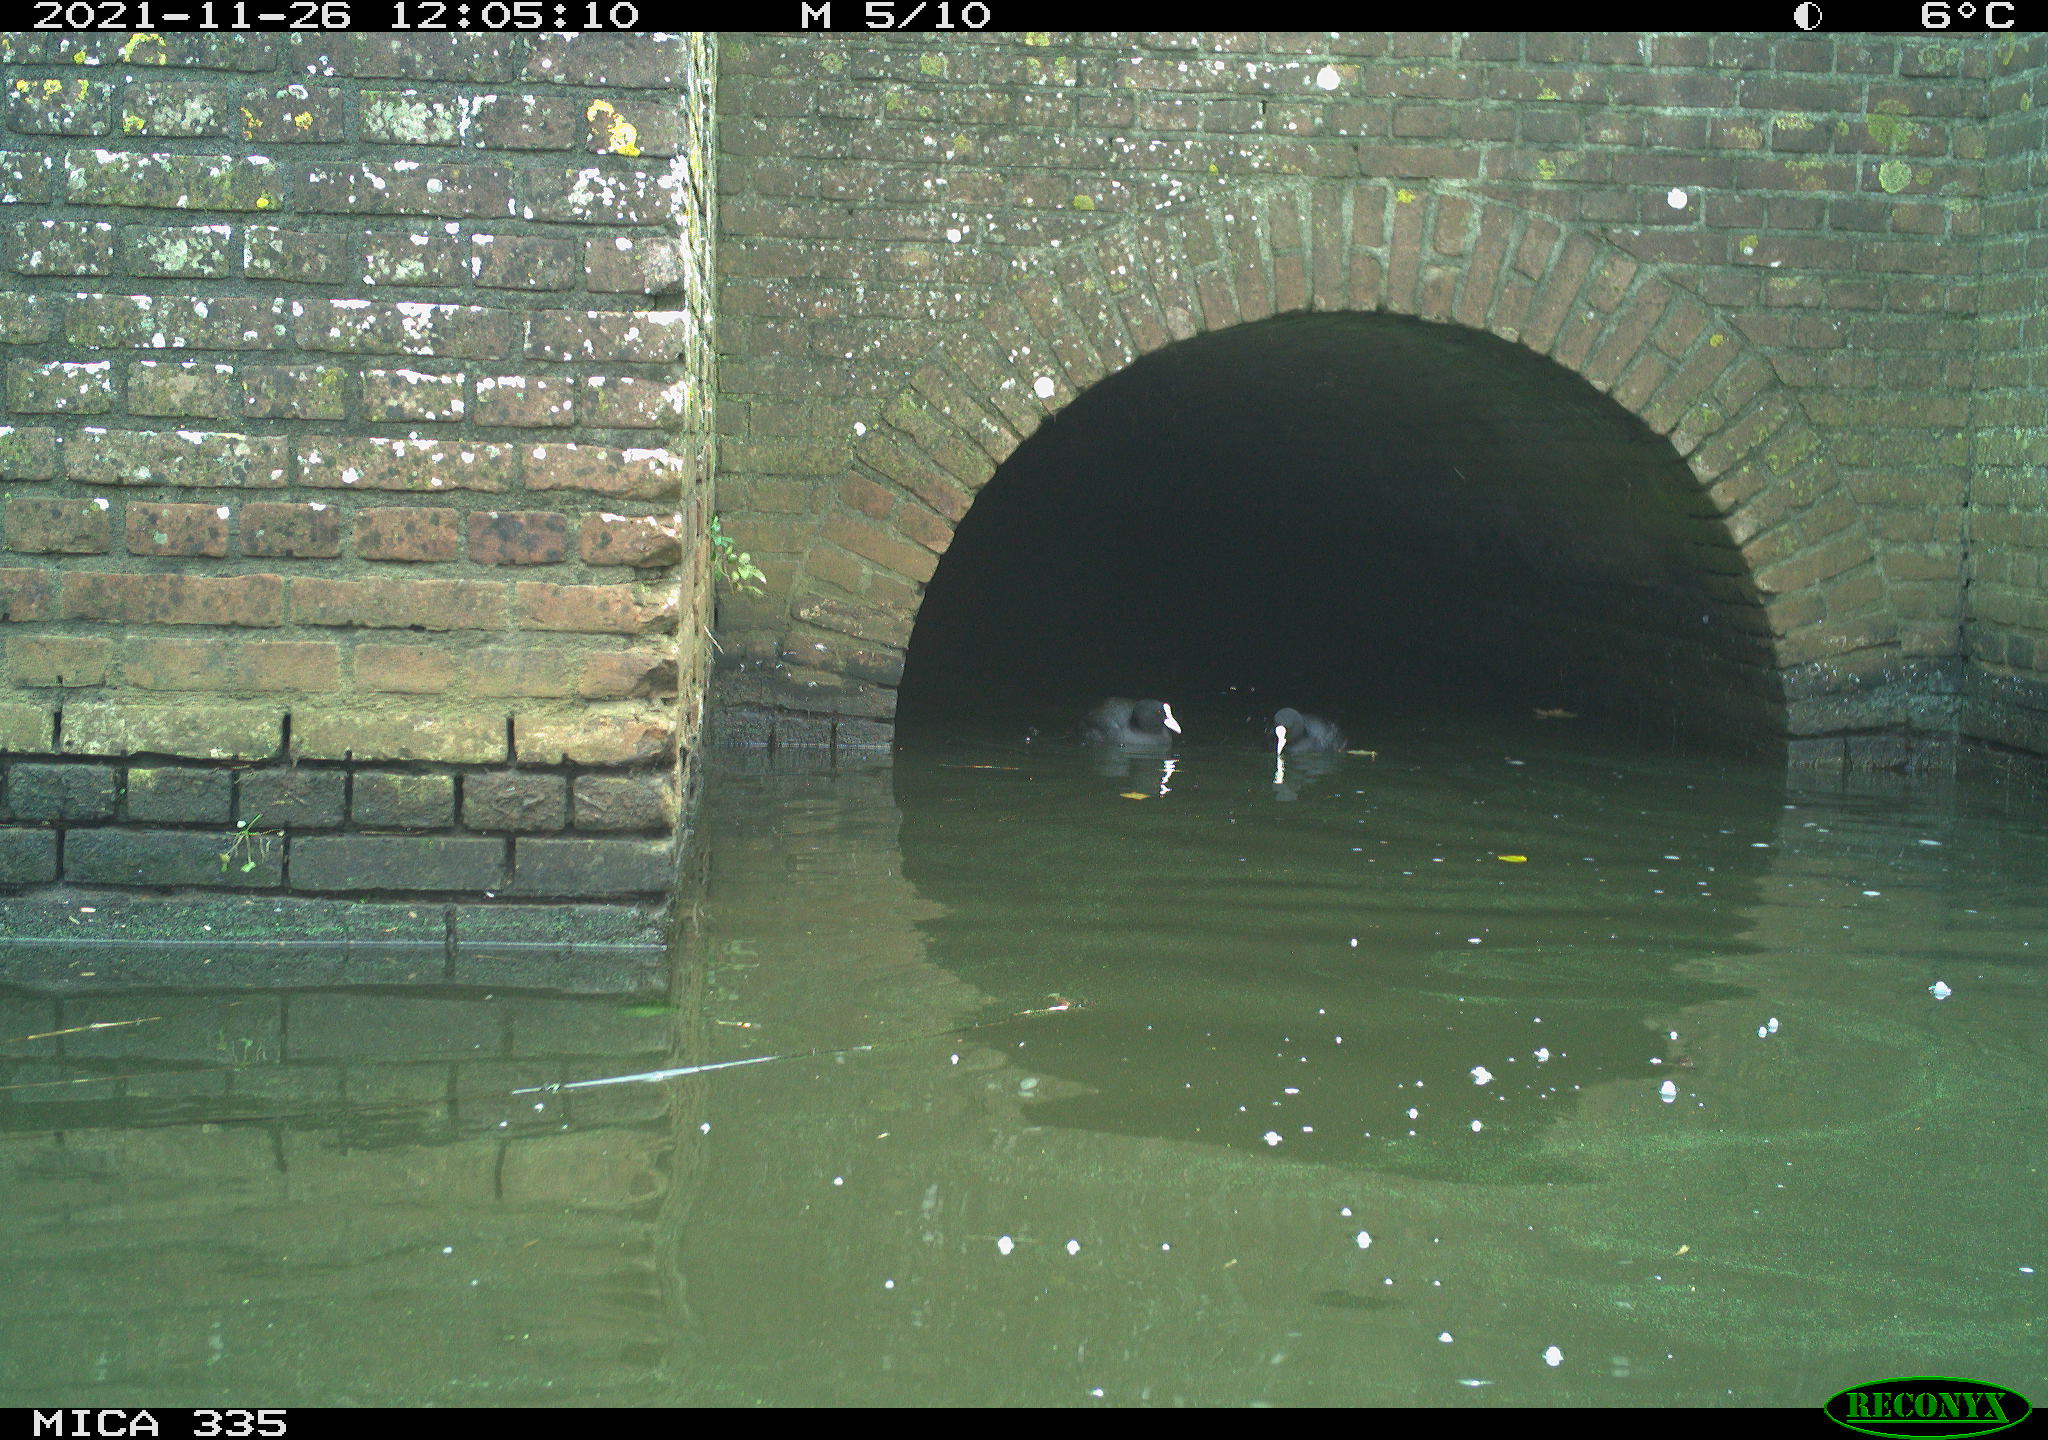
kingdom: Animalia
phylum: Chordata
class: Aves
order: Gruiformes
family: Rallidae
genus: Fulica
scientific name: Fulica atra
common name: Eurasian coot
